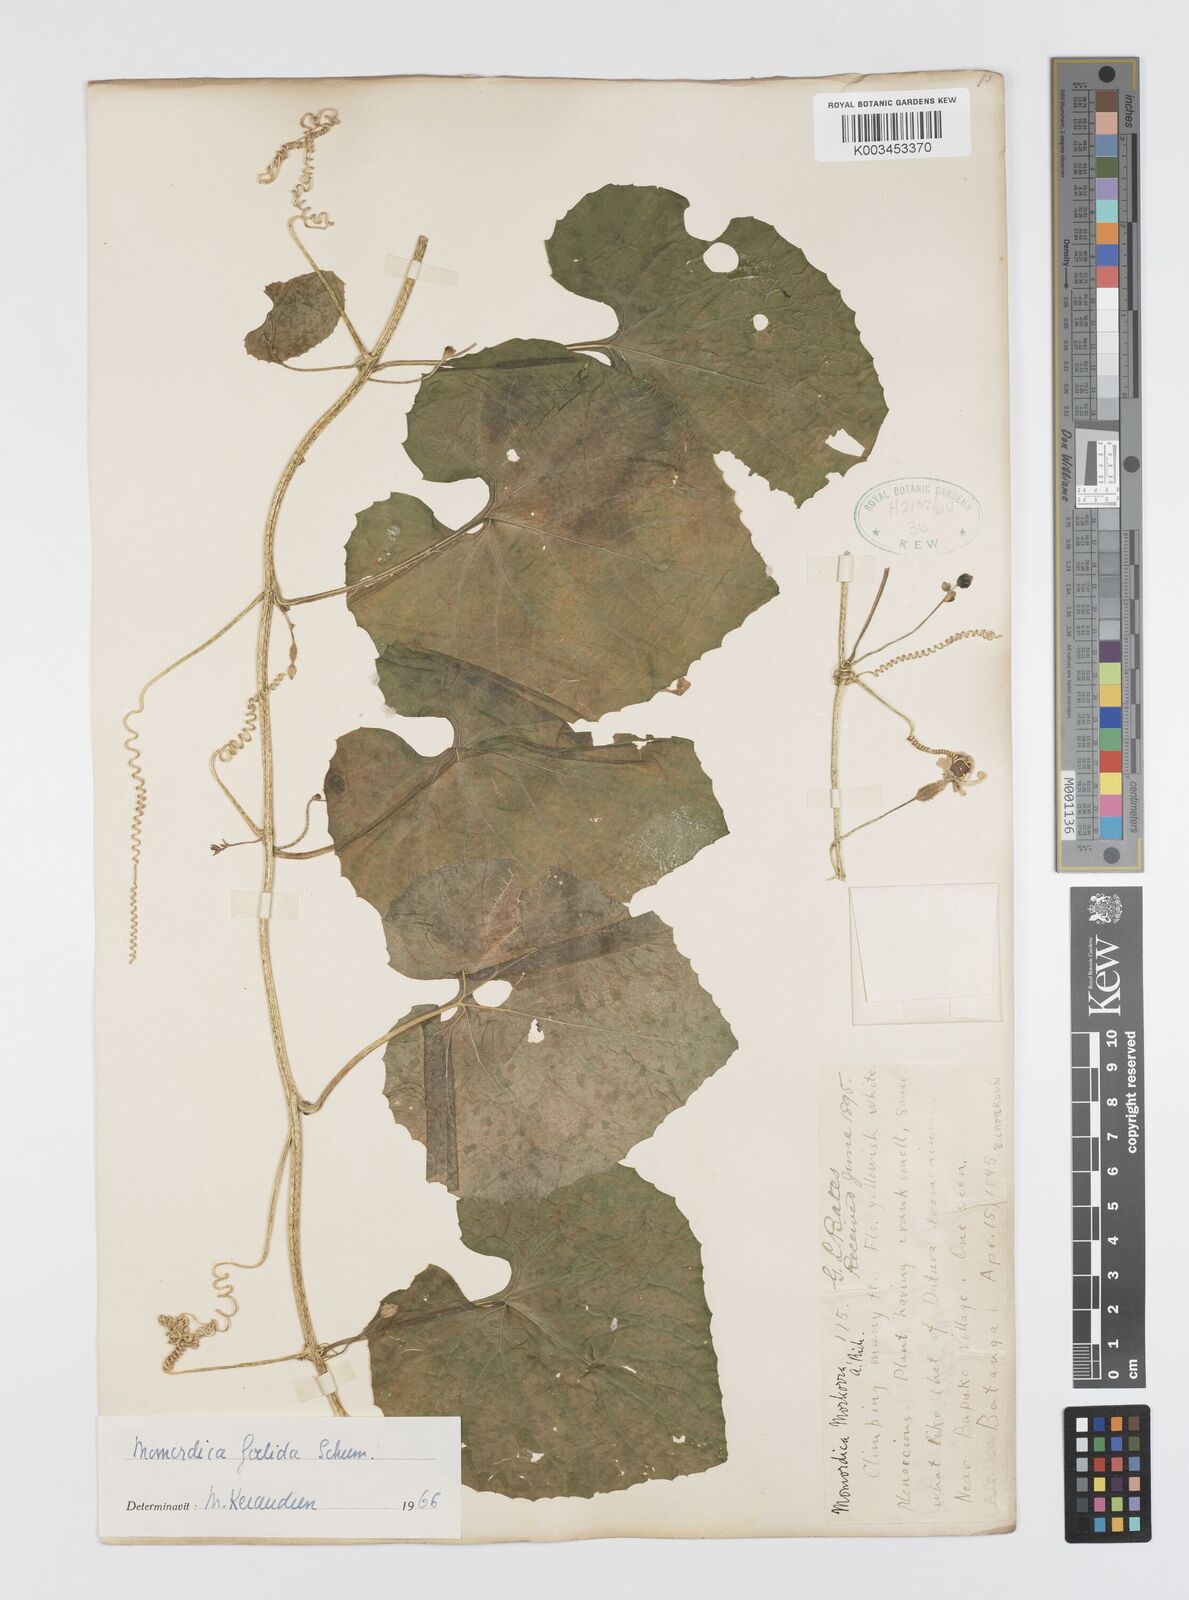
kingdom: Plantae
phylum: Tracheophyta
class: Magnoliopsida
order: Cucurbitales
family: Cucurbitaceae
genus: Momordica
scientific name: Momordica foetida
